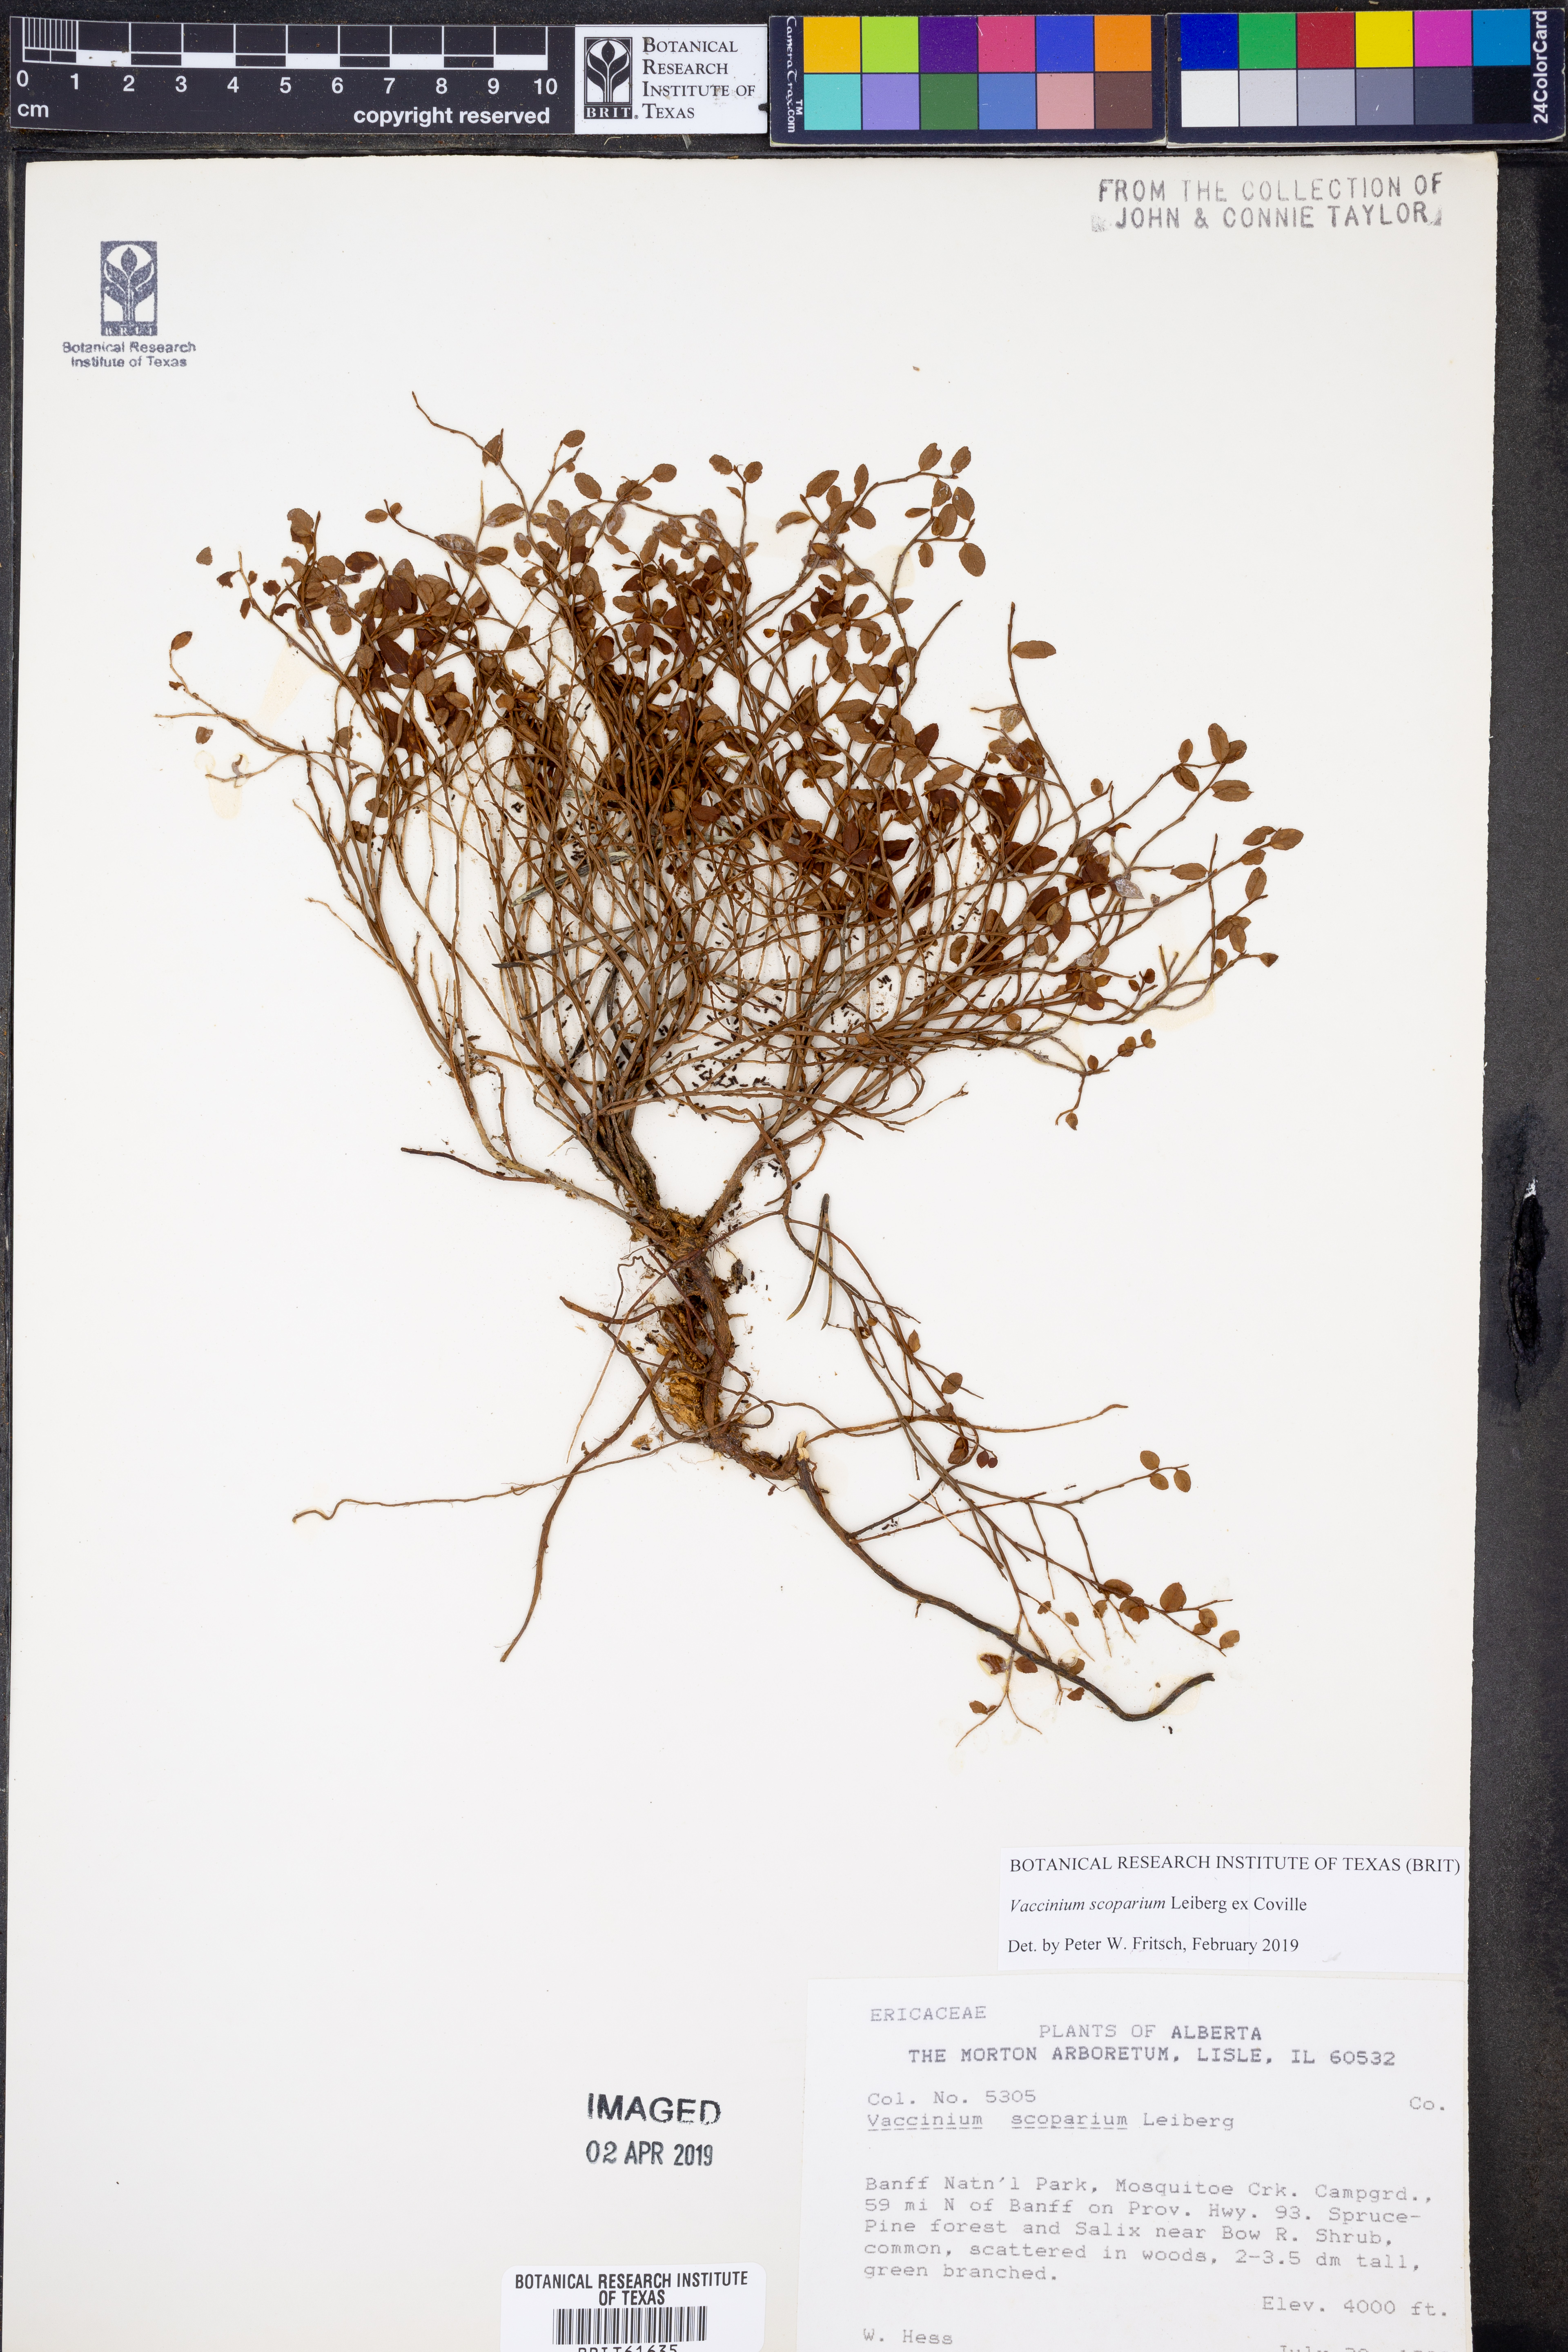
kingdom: Plantae
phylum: Tracheophyta
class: Magnoliopsida
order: Ericales
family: Ericaceae
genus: Vaccinium
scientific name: Vaccinium scoparium
